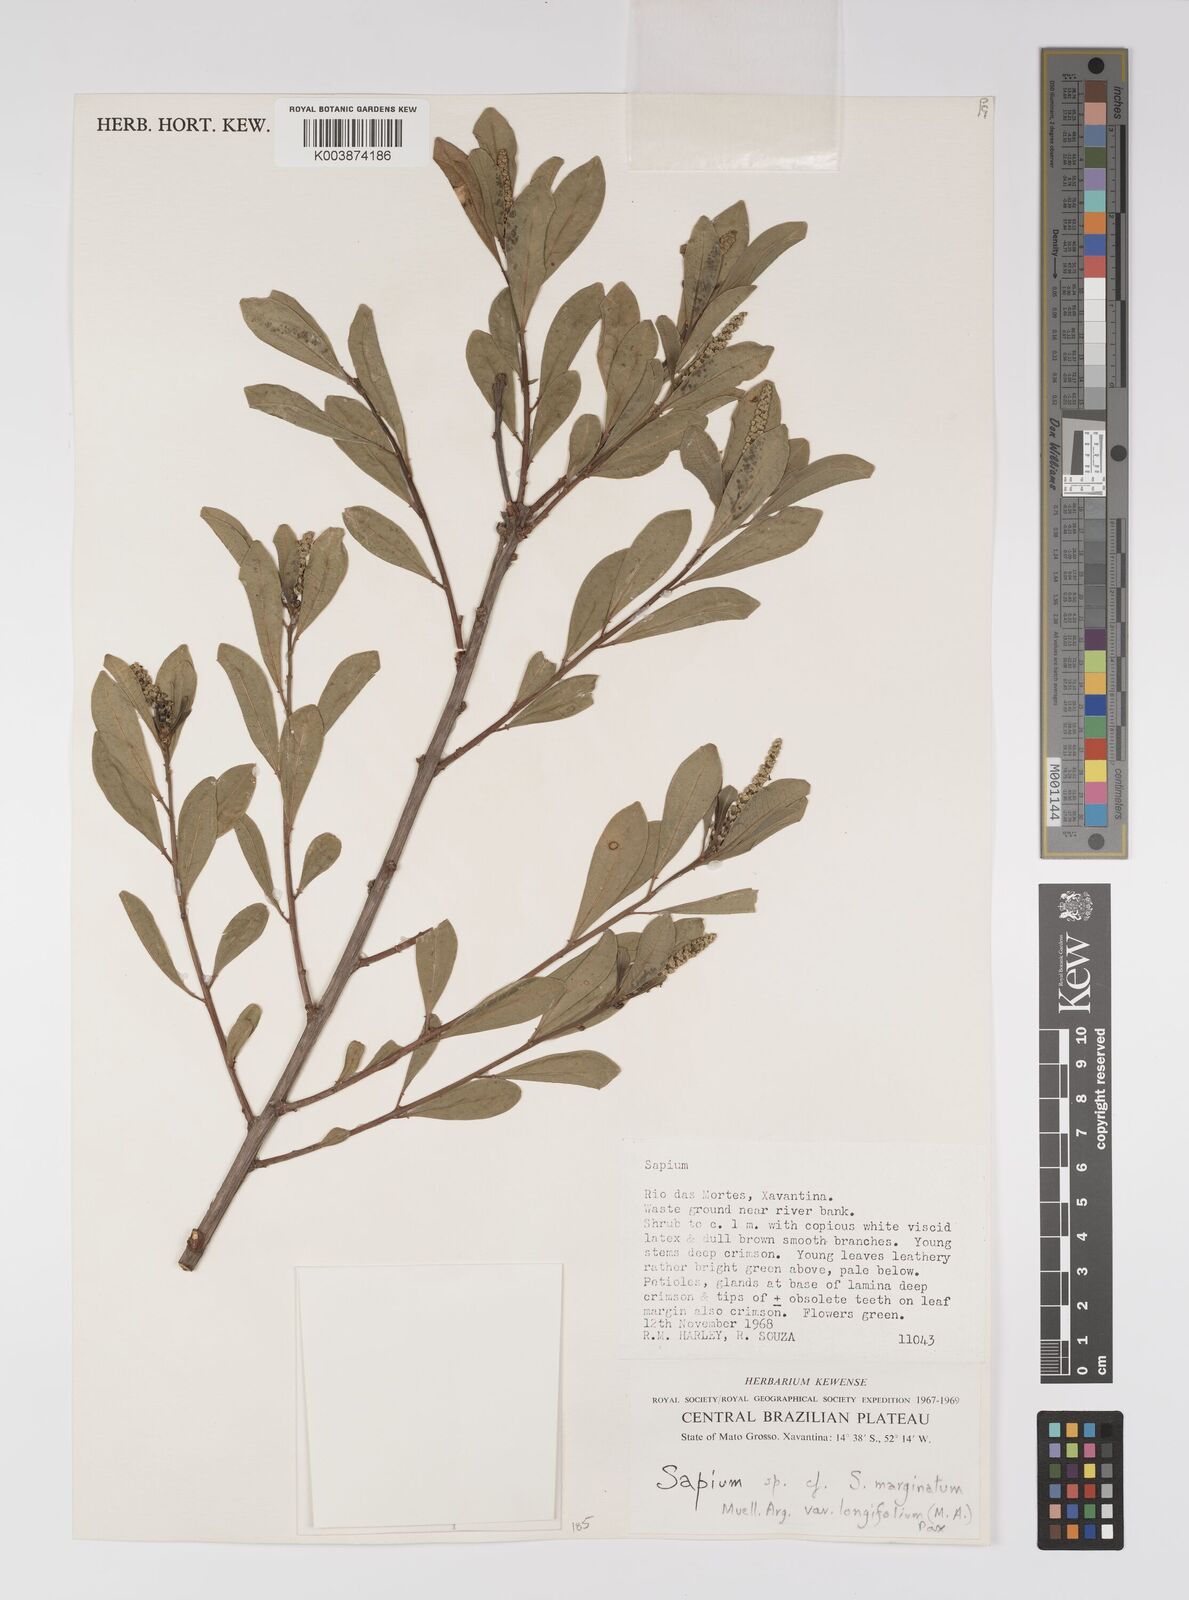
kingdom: Plantae
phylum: Tracheophyta
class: Magnoliopsida
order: Malpighiales
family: Euphorbiaceae
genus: Sapium
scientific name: Sapium
